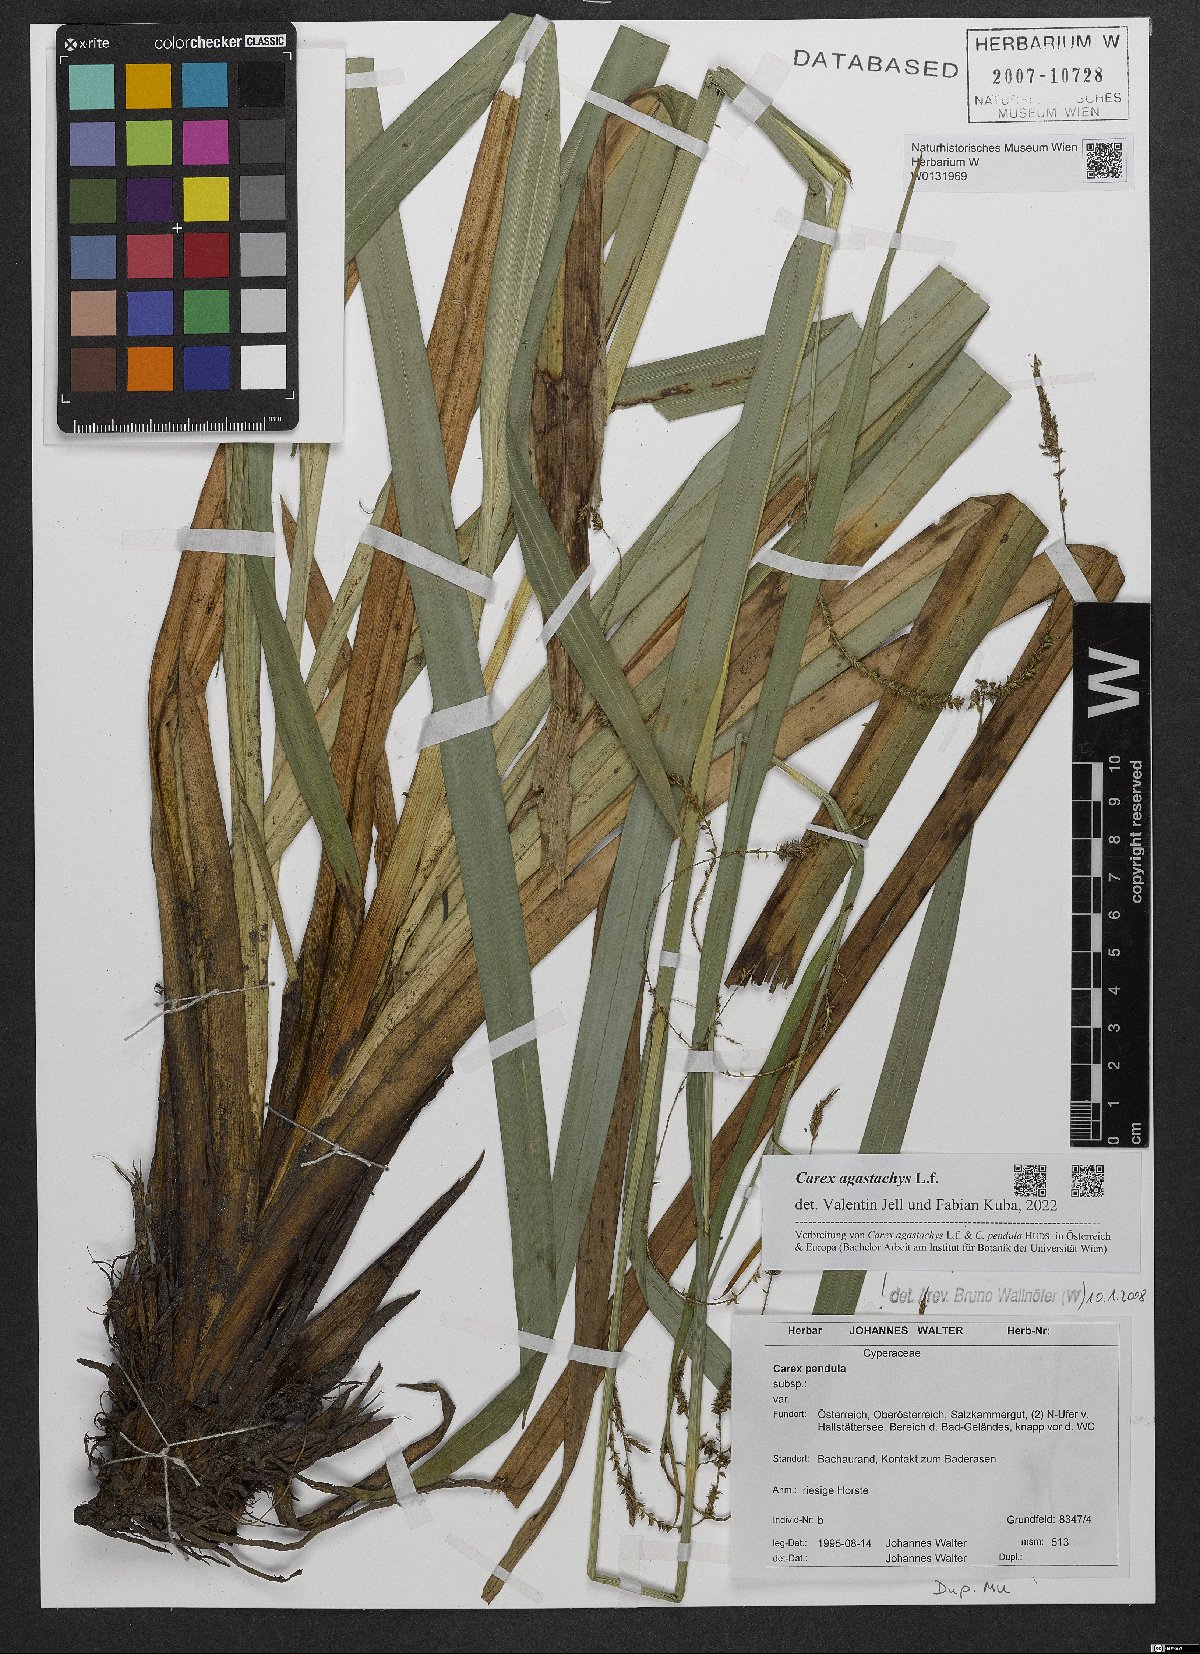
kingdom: Plantae
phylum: Tracheophyta
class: Liliopsida
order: Poales
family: Cyperaceae
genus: Carex
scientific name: Carex agastachys
